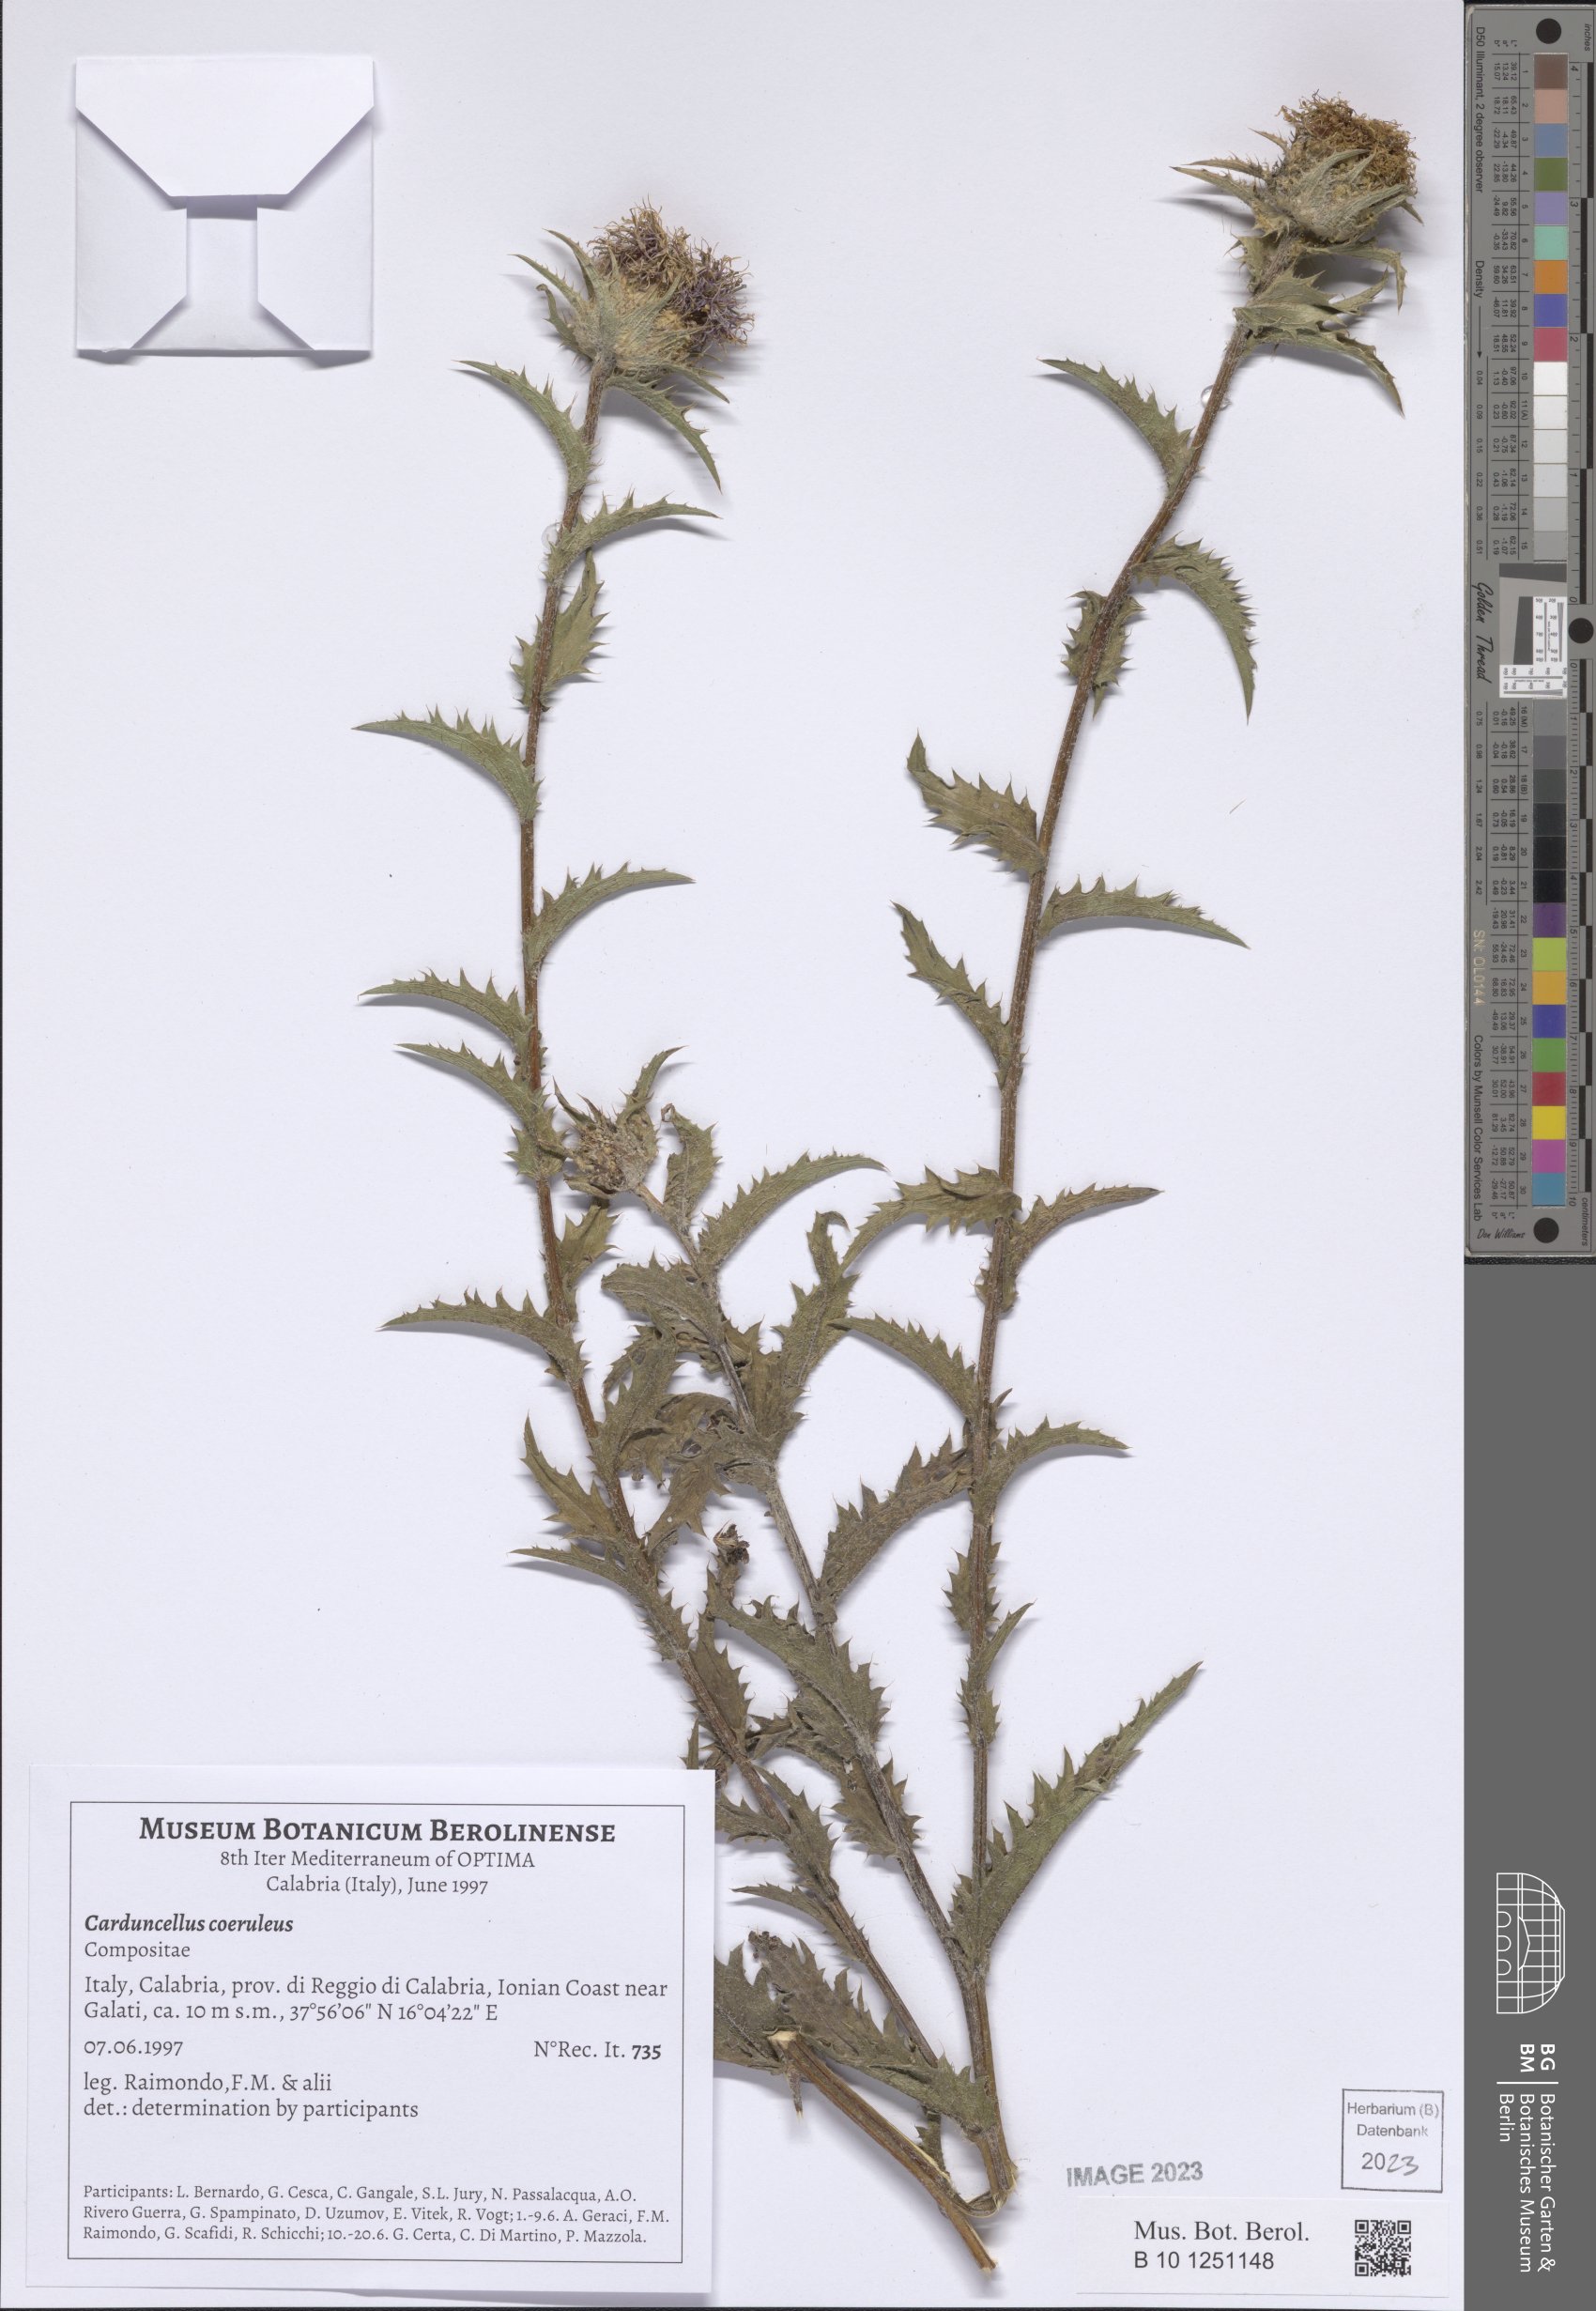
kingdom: Plantae
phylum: Tracheophyta
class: Magnoliopsida
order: Asterales
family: Asteraceae
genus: Carduncellus
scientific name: Carduncellus caeruleus
